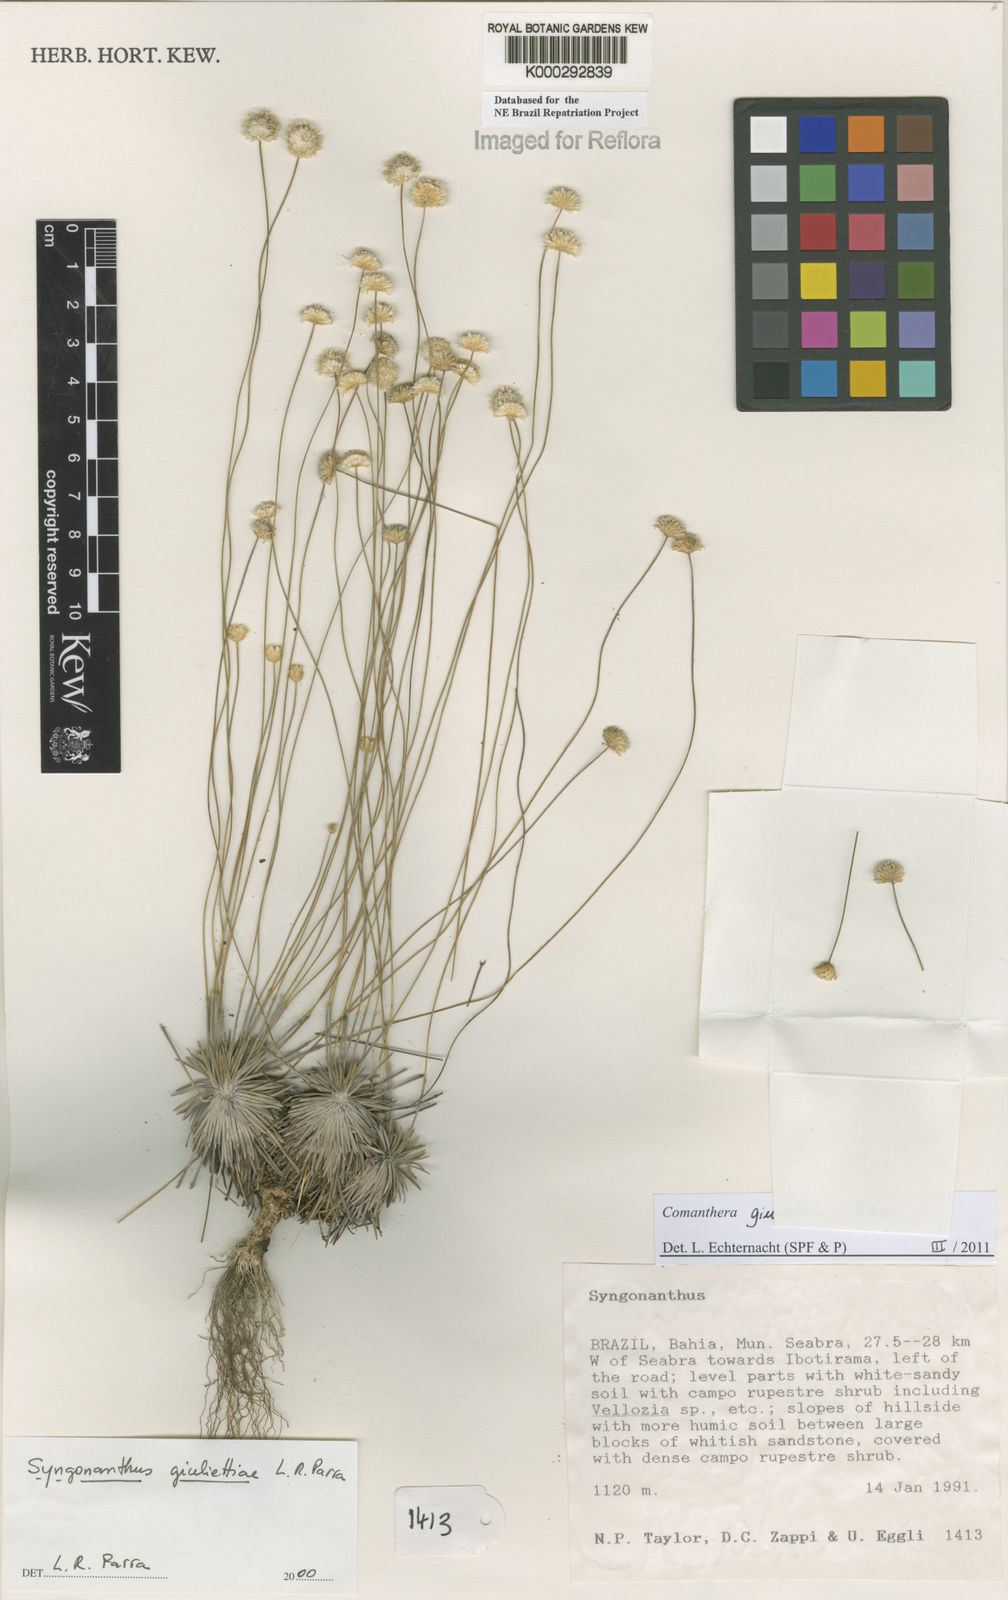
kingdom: Plantae
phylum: Tracheophyta
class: Liliopsida
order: Poales
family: Eriocaulaceae
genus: Syngonanthus
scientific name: Syngonanthus
